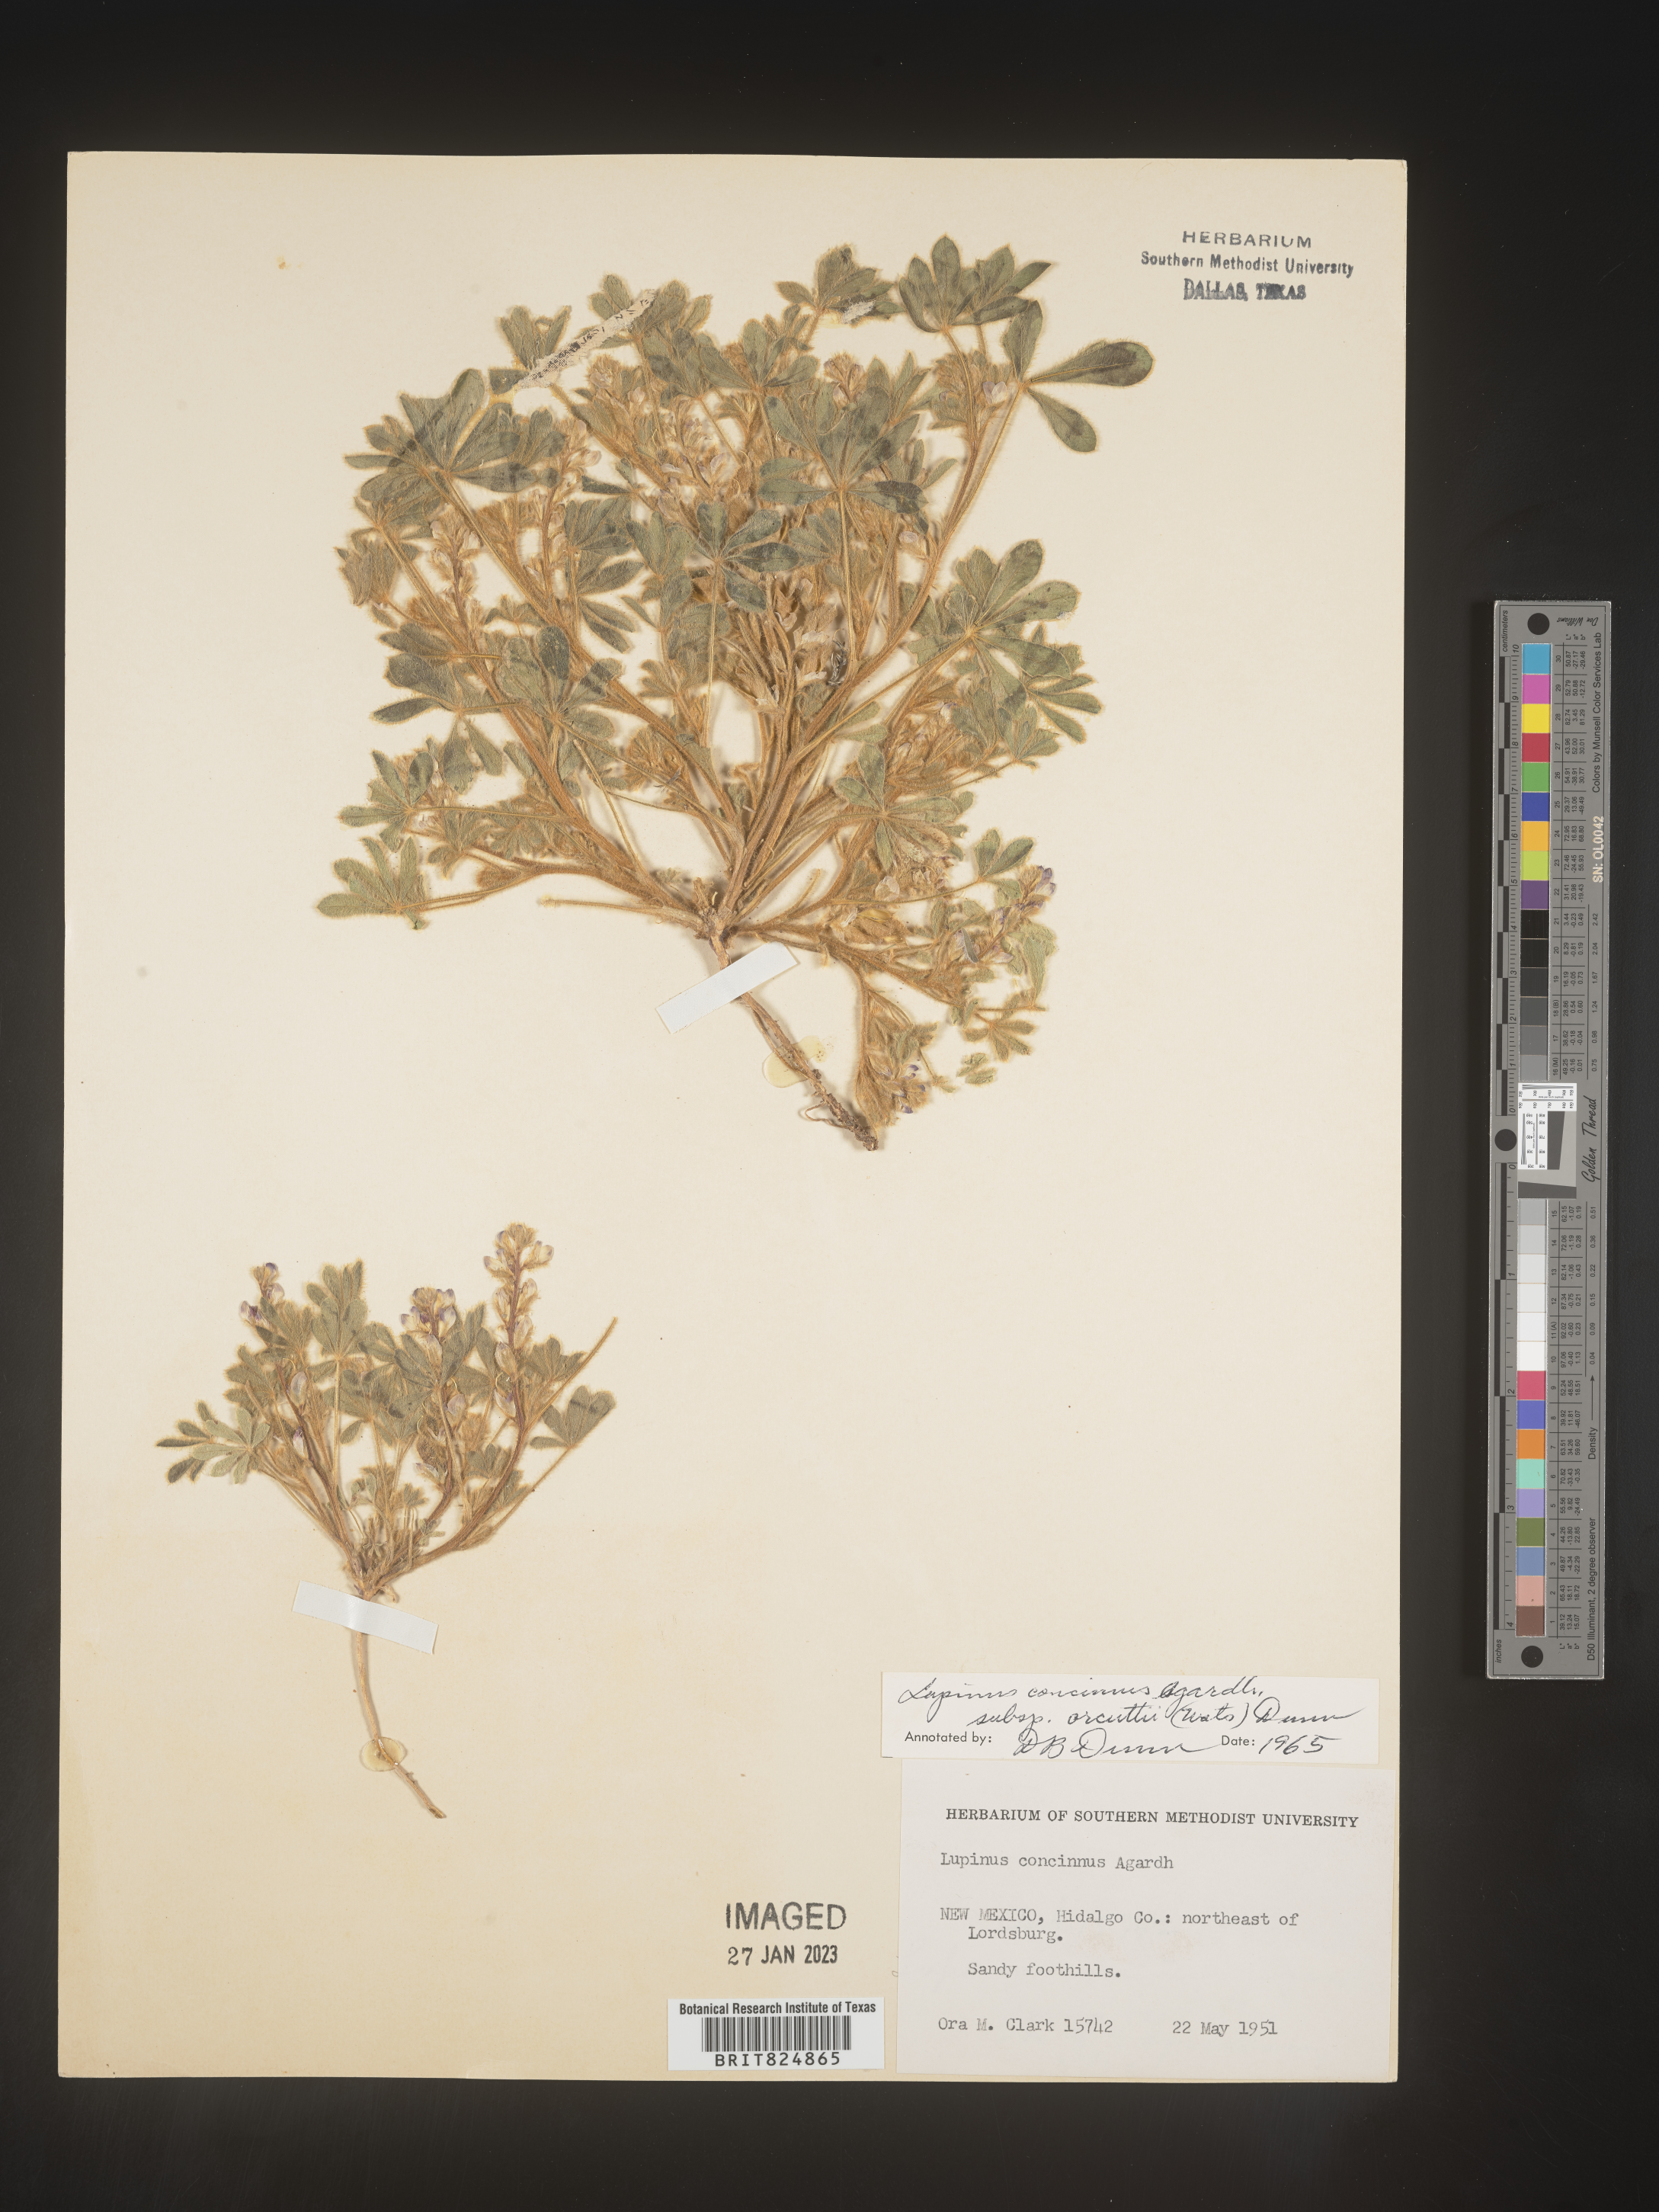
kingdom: Plantae
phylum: Tracheophyta
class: Magnoliopsida
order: Fabales
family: Fabaceae
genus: Lupinus
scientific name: Lupinus
